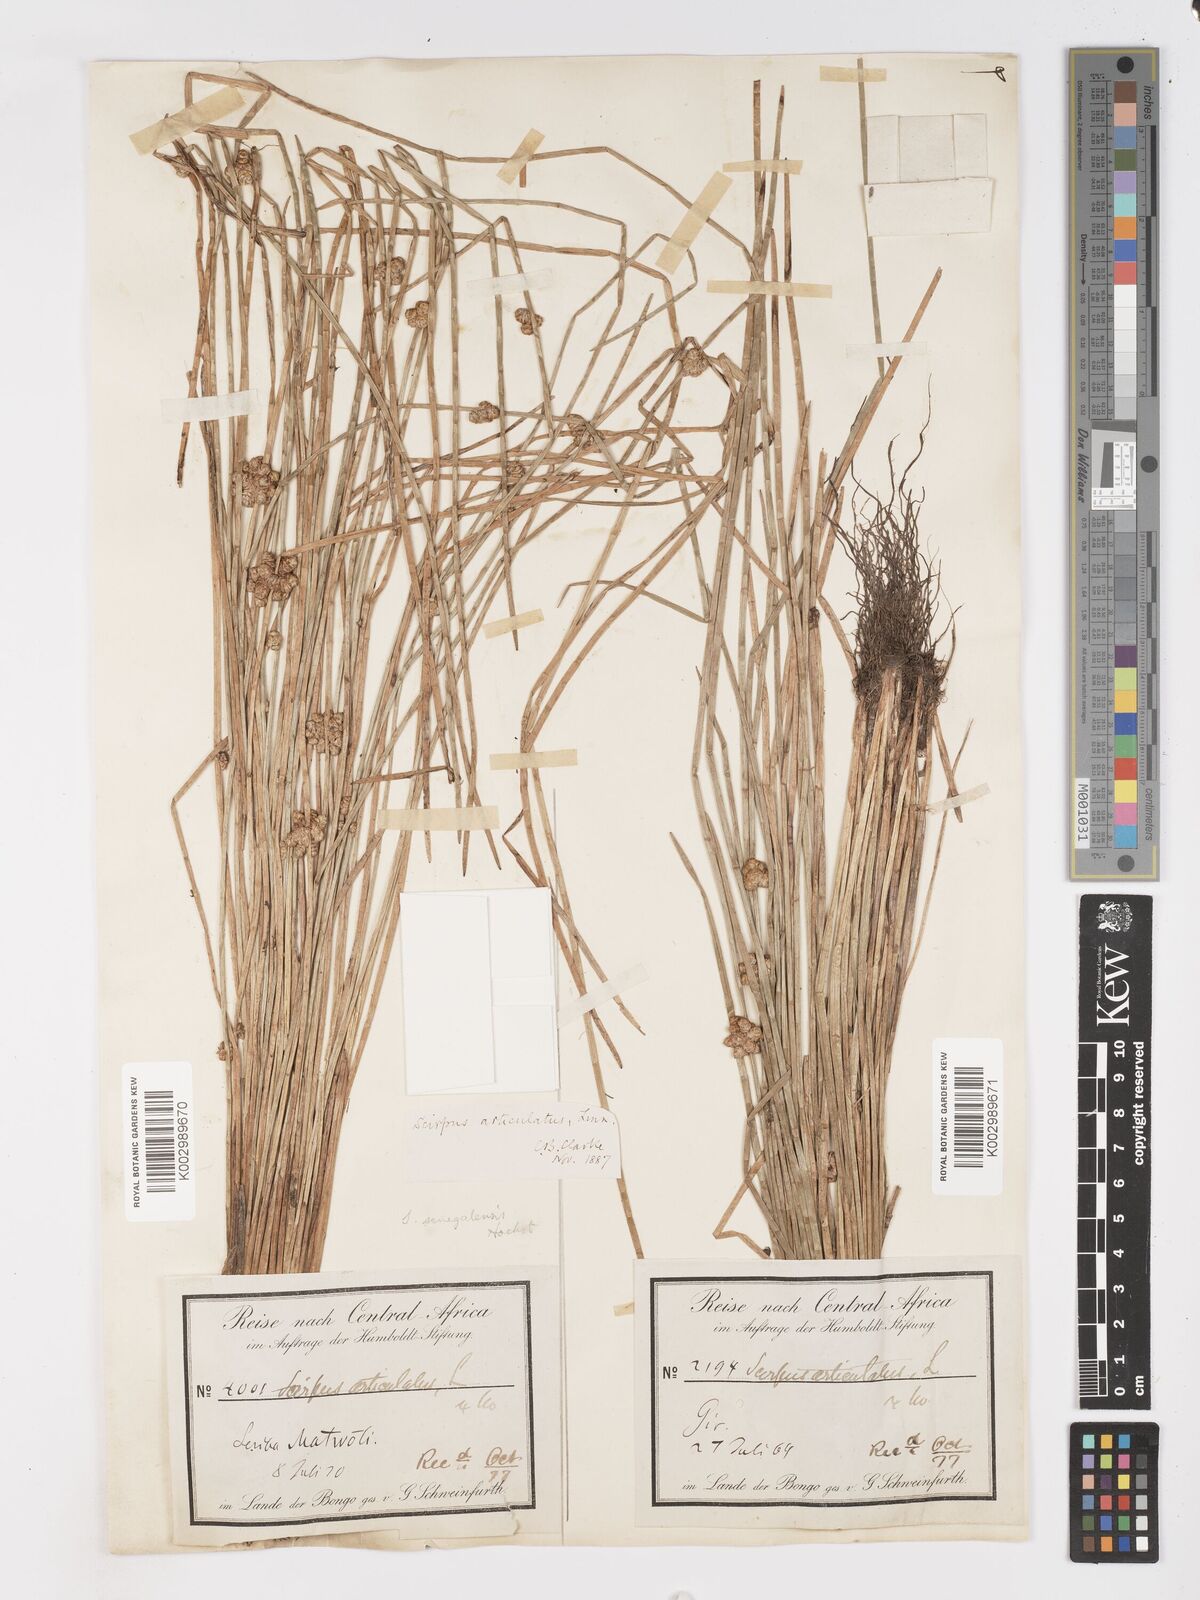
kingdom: Plantae
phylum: Tracheophyta
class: Liliopsida
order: Poales
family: Cyperaceae
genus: Schoenoplectiella
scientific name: Schoenoplectiella senegalensis
